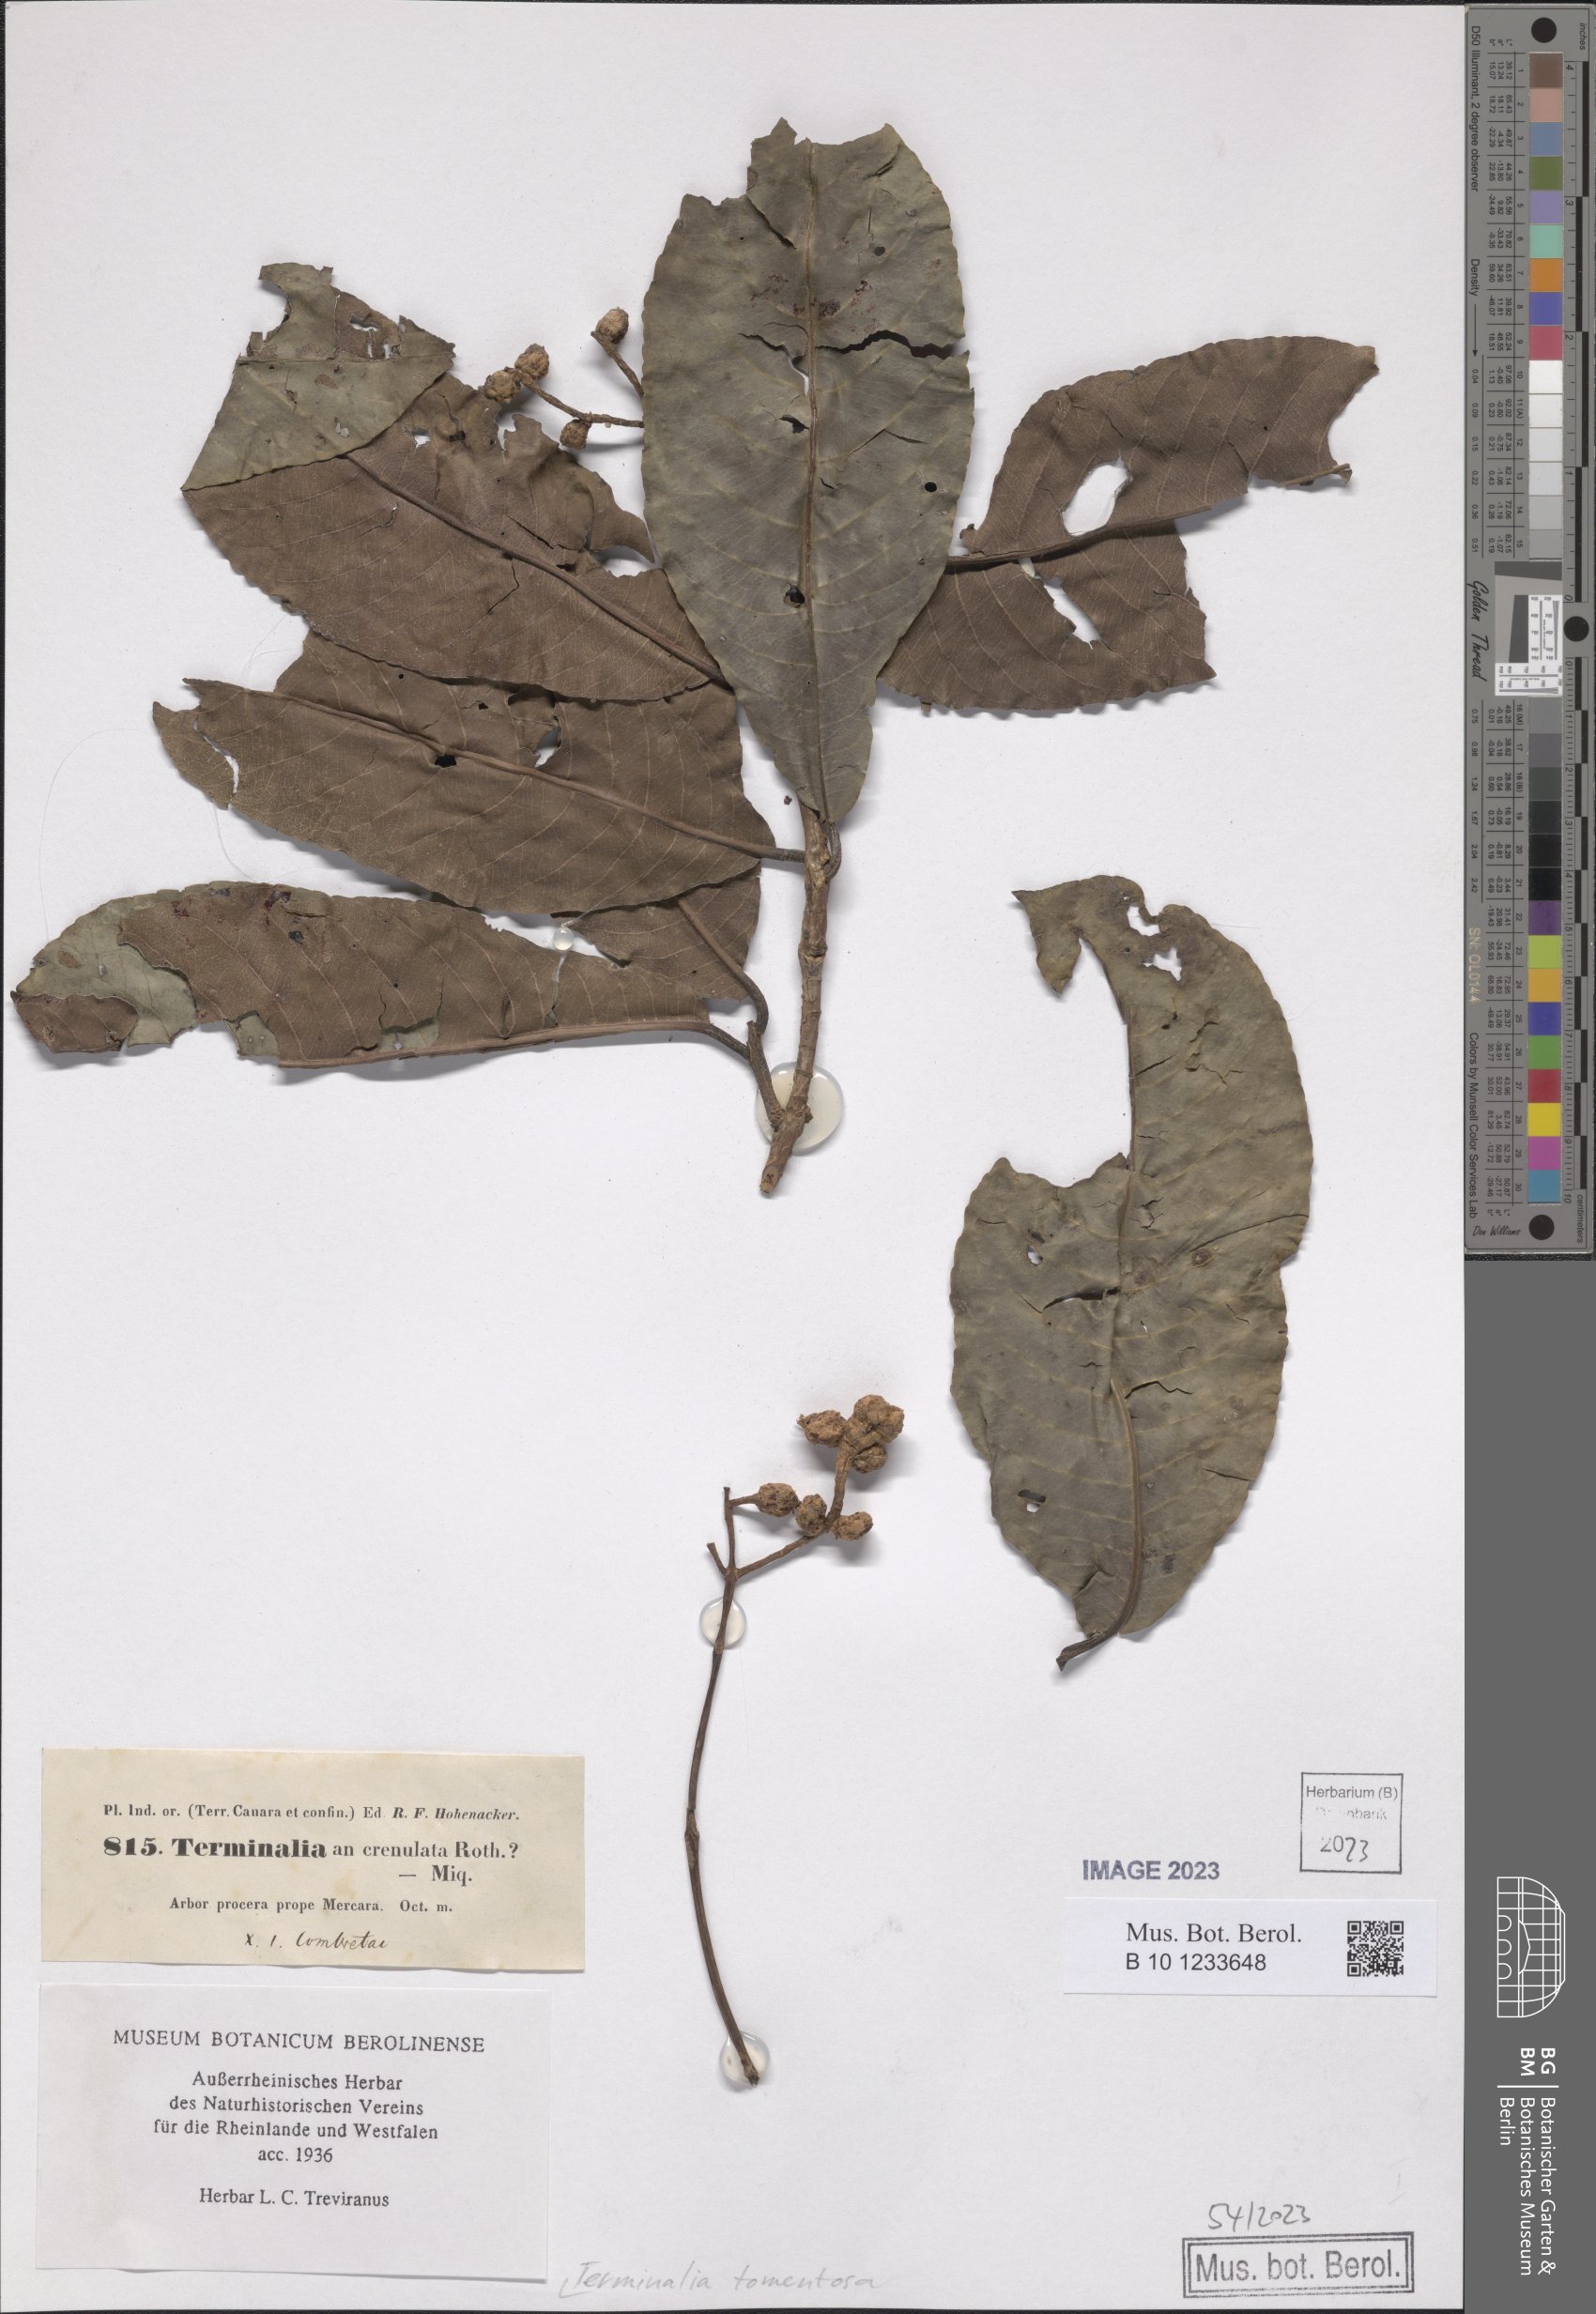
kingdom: Plantae
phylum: Tracheophyta
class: Magnoliopsida
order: Myrtales
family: Combretaceae
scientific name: Combretaceae
